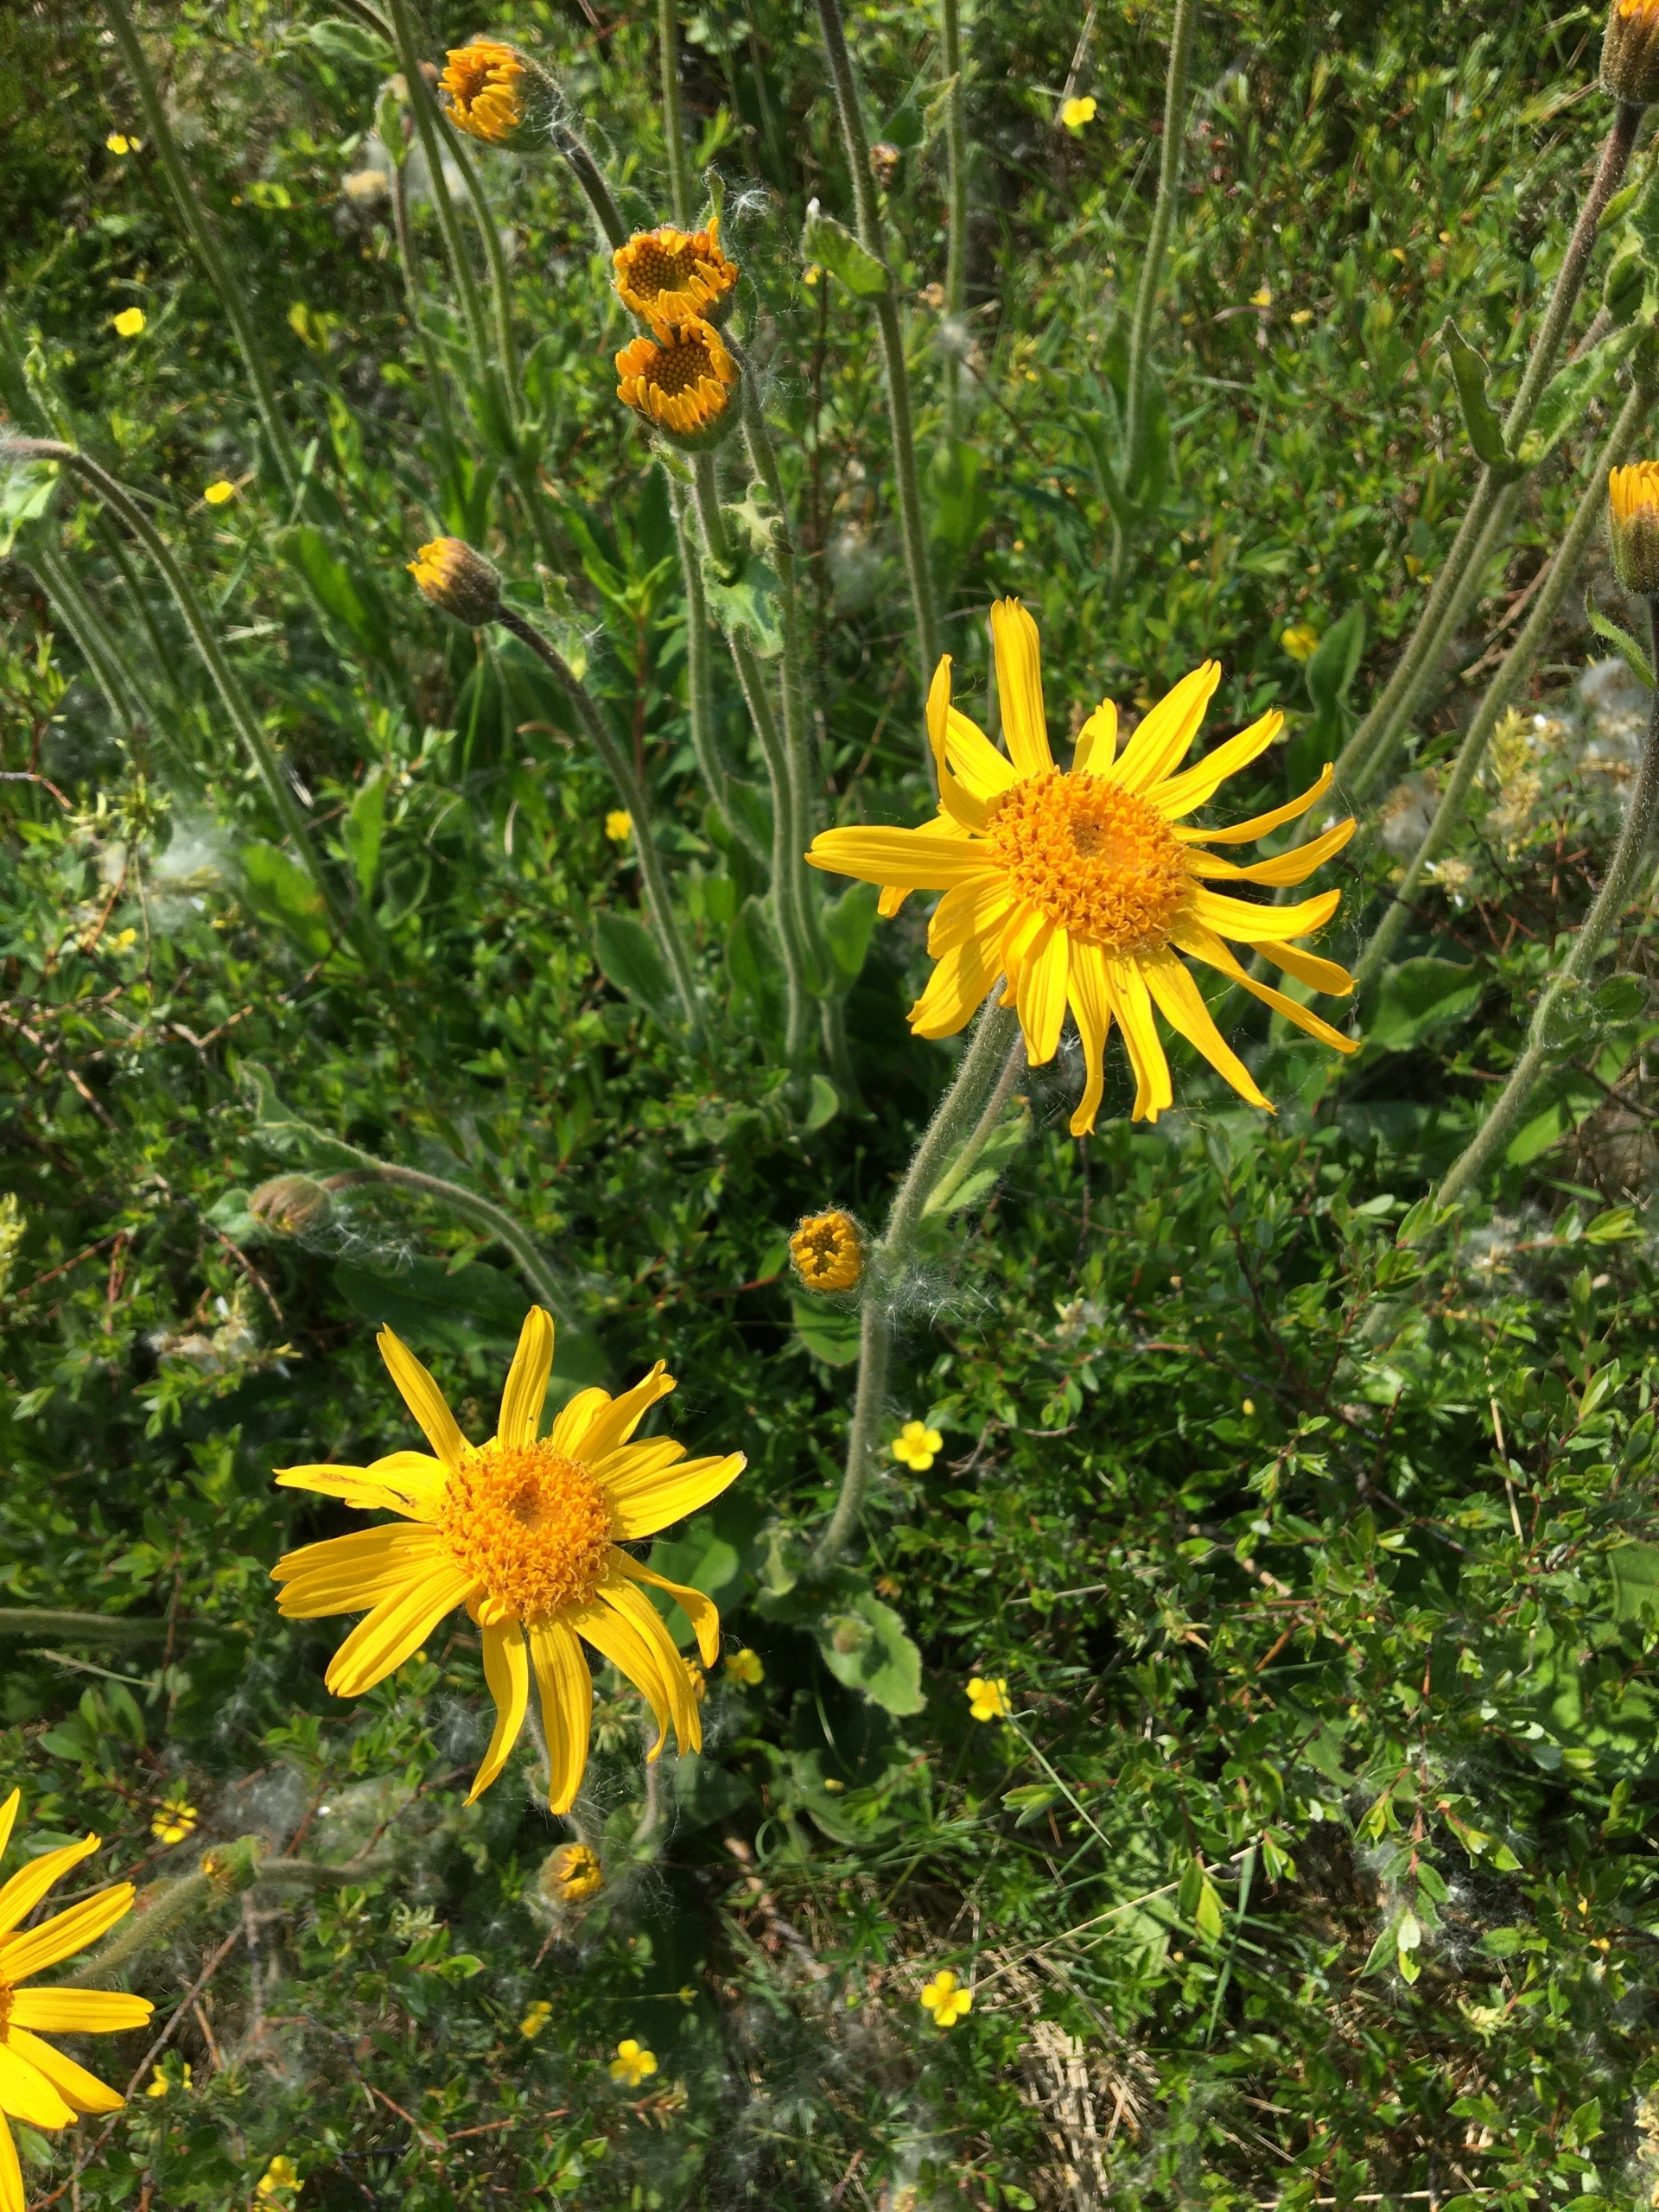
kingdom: Plantae
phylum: Tracheophyta
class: Magnoliopsida
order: Asterales
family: Asteraceae
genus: Arnica
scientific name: Arnica montana
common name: Guldblomme
